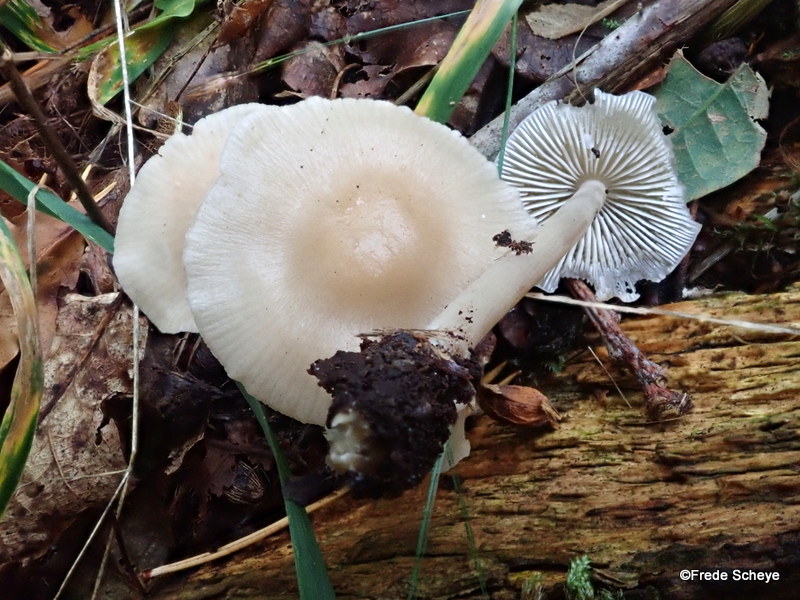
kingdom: Fungi
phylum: Basidiomycota
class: Agaricomycetes
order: Agaricales
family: Mycenaceae
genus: Mycena
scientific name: Mycena galericulata
